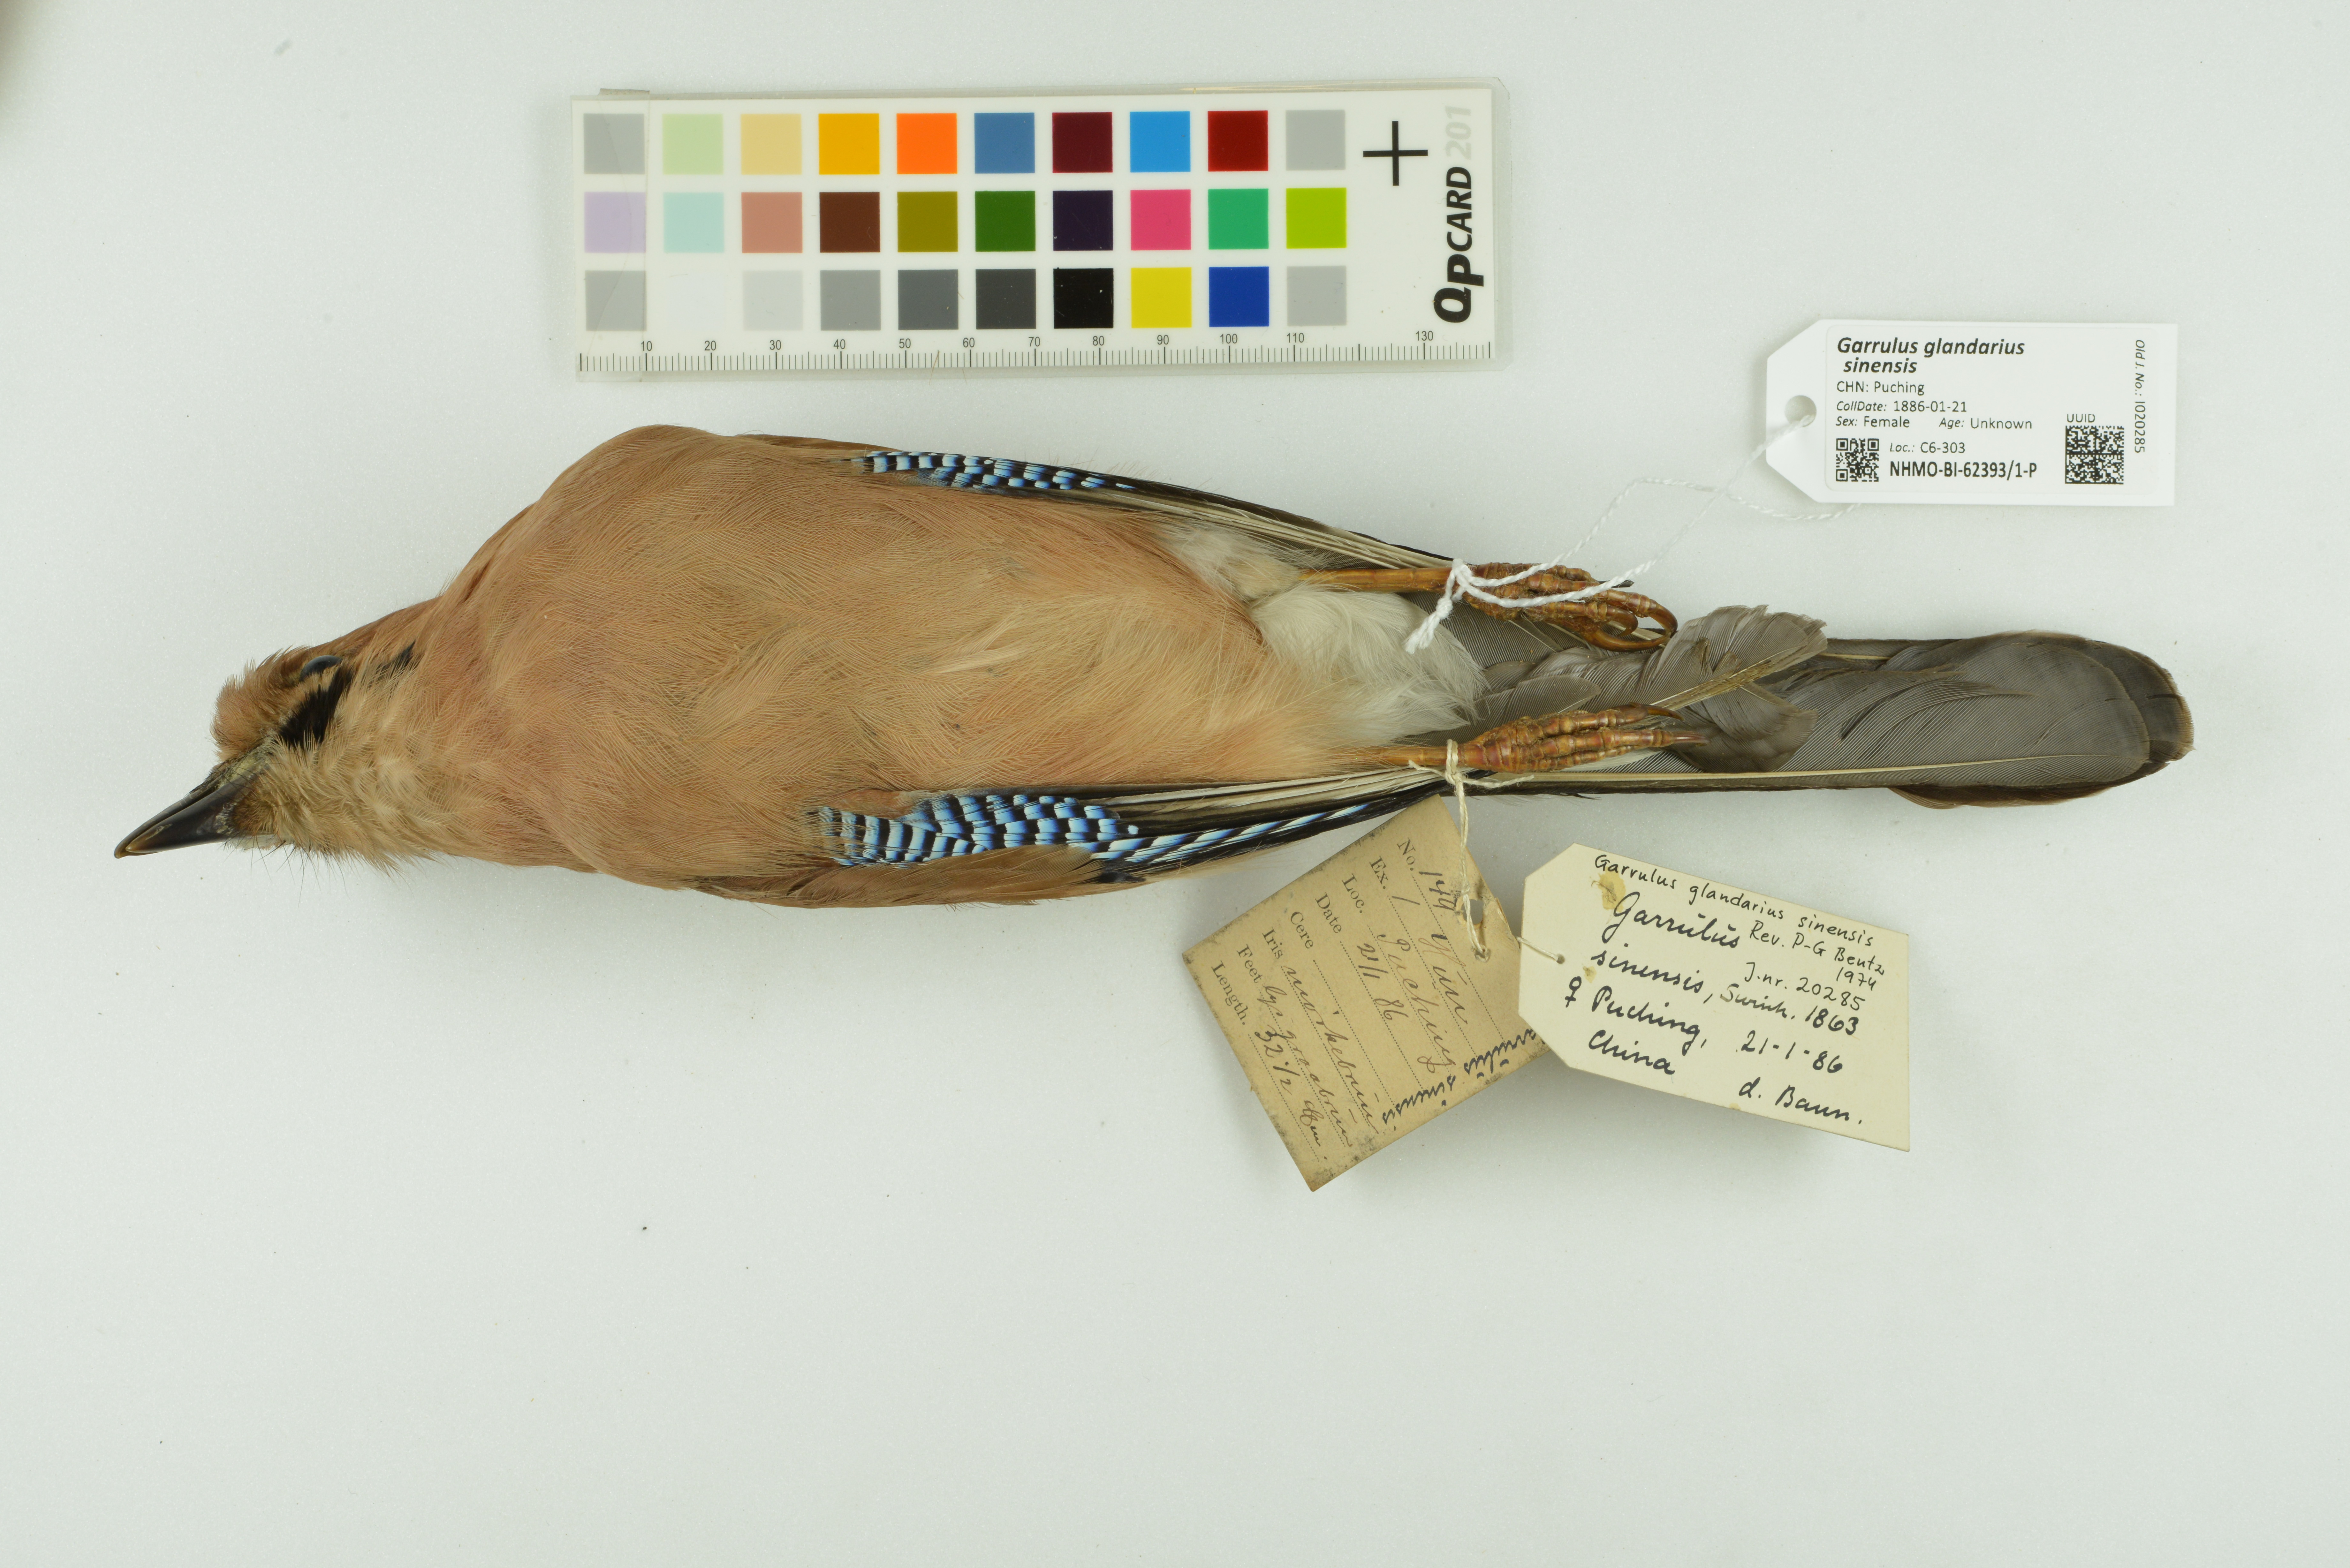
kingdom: Animalia
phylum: Chordata
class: Aves
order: Passeriformes
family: Corvidae
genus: Garrulus
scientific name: Garrulus glandarius
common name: Eurasian jay
